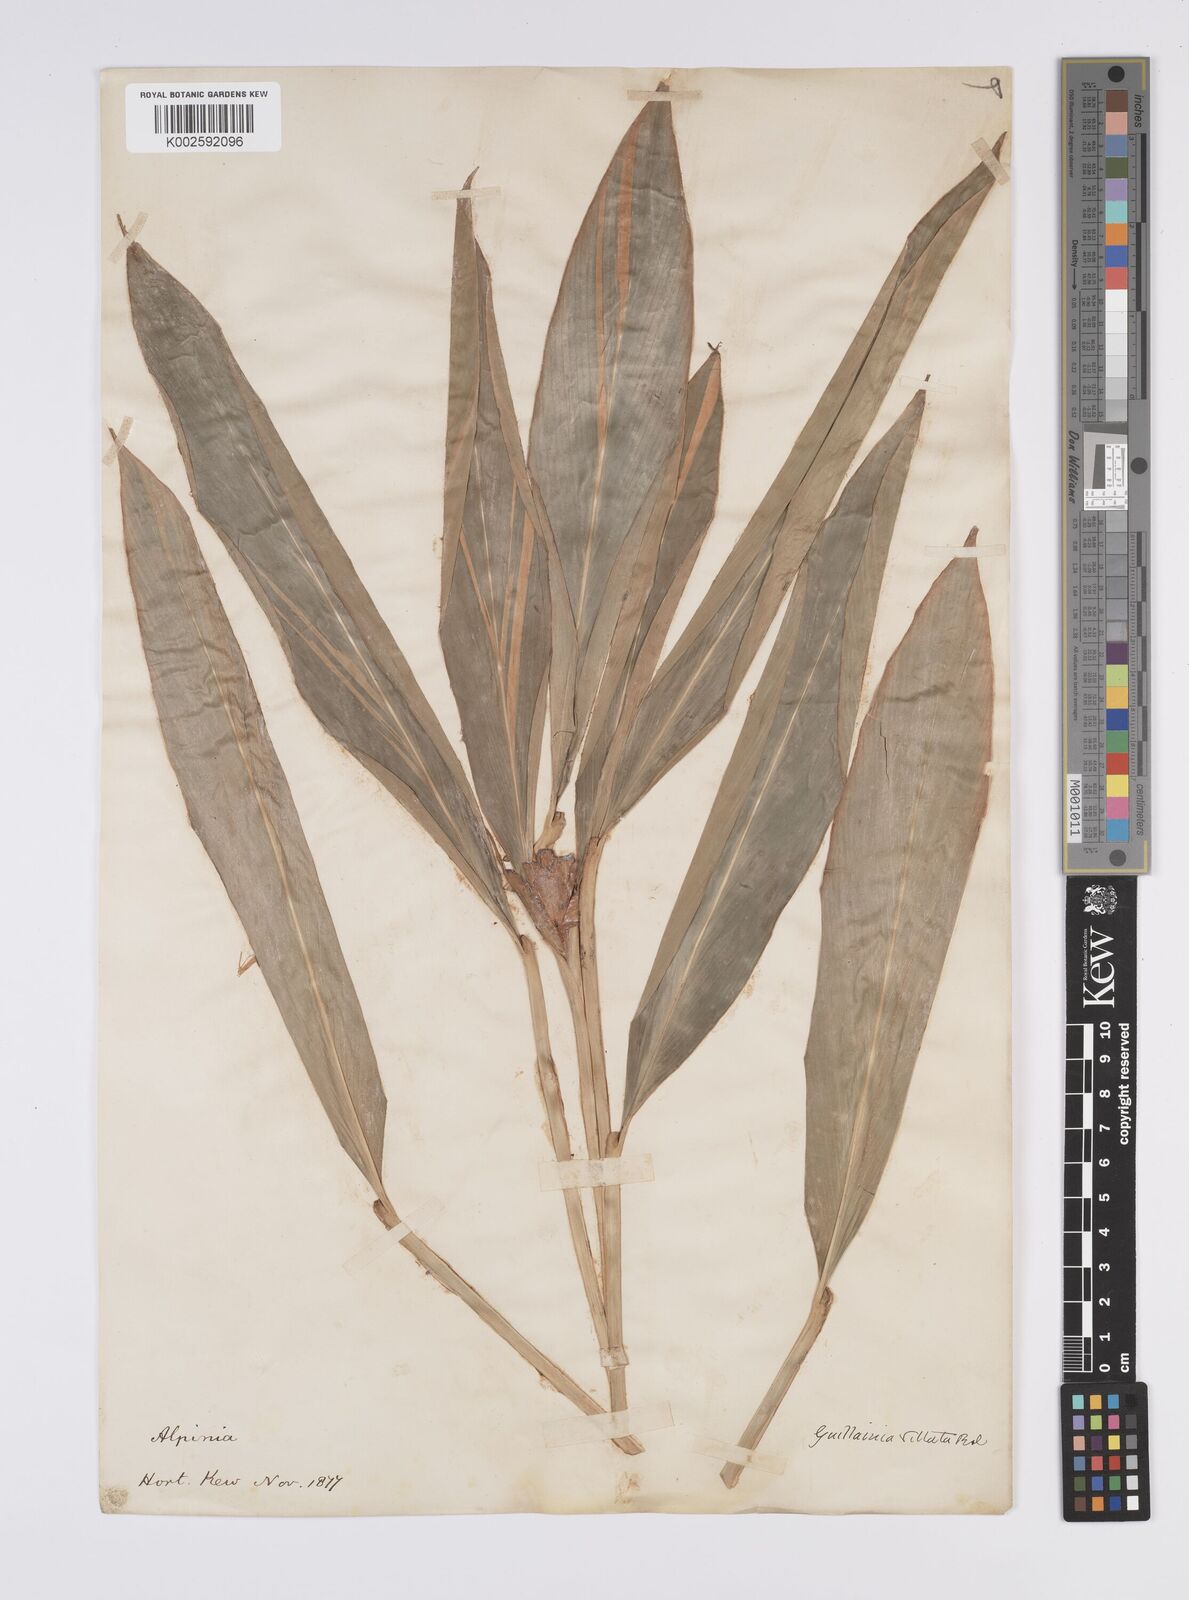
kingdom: Plantae
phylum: Tracheophyta
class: Liliopsida
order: Zingiberales
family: Zingiberaceae
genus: Alpinia
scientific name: Alpinia vittata
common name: Variegate-ginger
